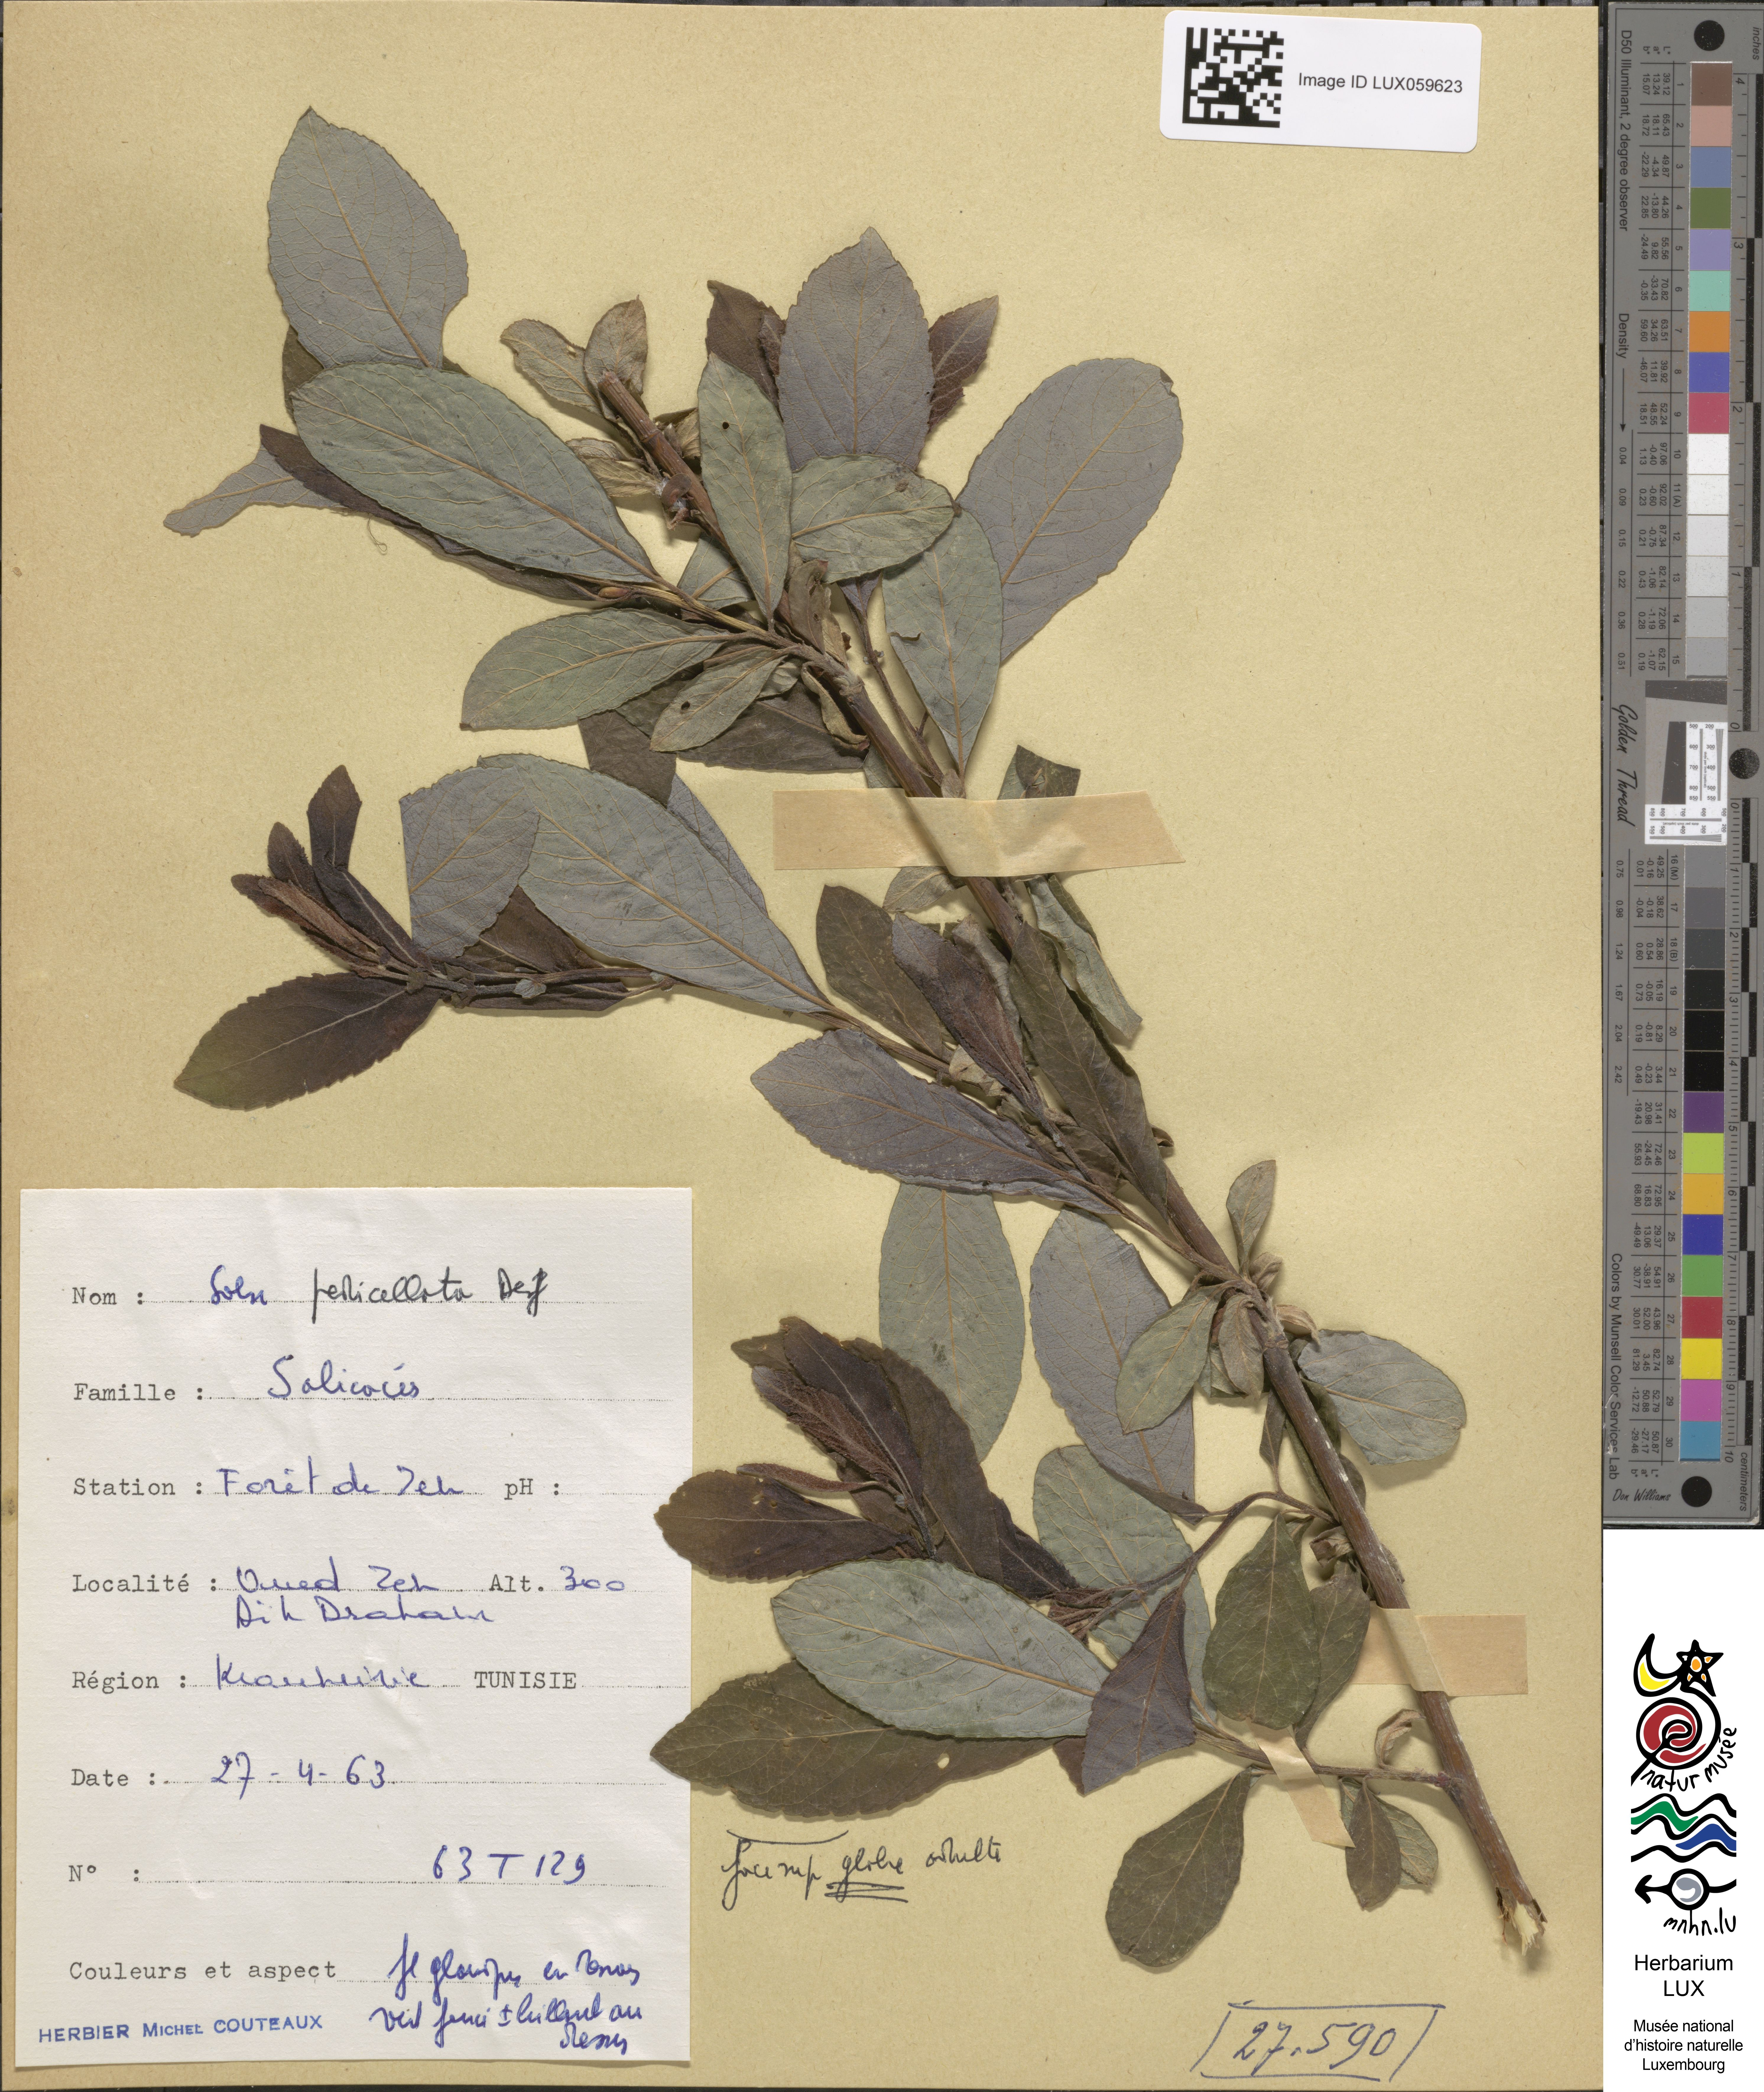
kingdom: Plantae
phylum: Tracheophyta
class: Magnoliopsida
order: Malpighiales
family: Salicaceae
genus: Salix
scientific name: Salix pedicellata
